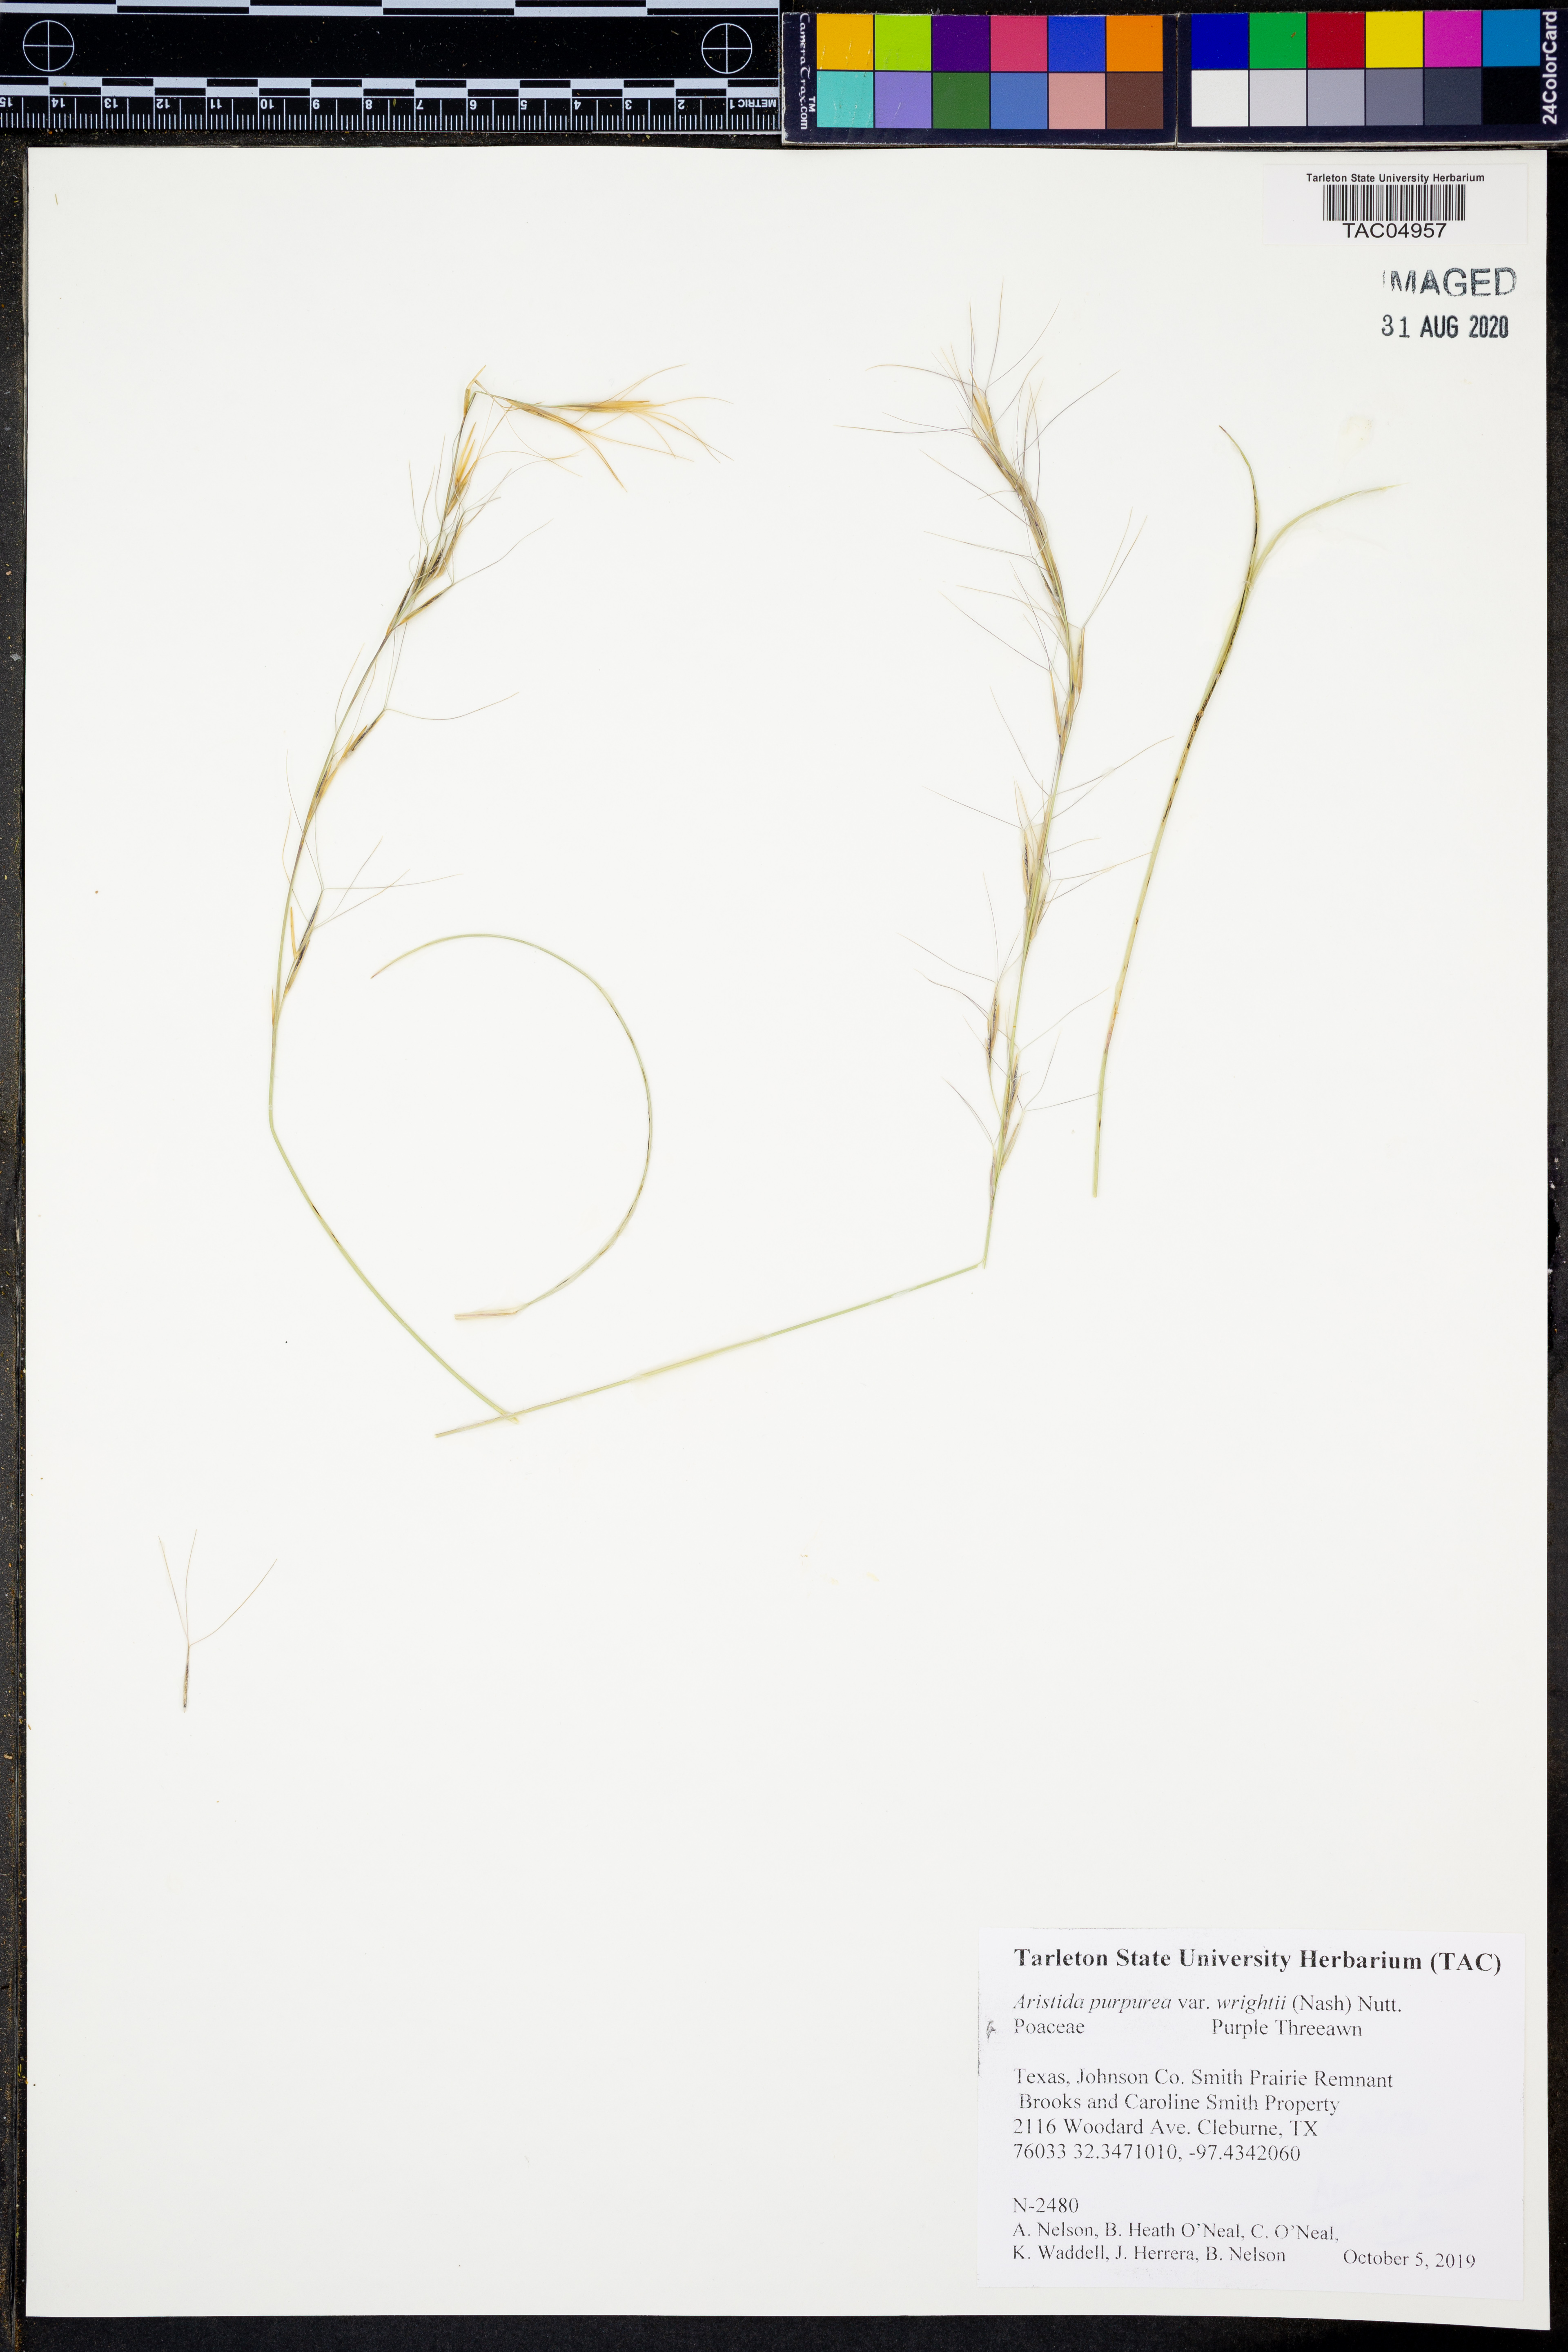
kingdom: Plantae
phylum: Tracheophyta
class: Liliopsida
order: Poales
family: Poaceae
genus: Aristida
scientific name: Aristida wrightii
